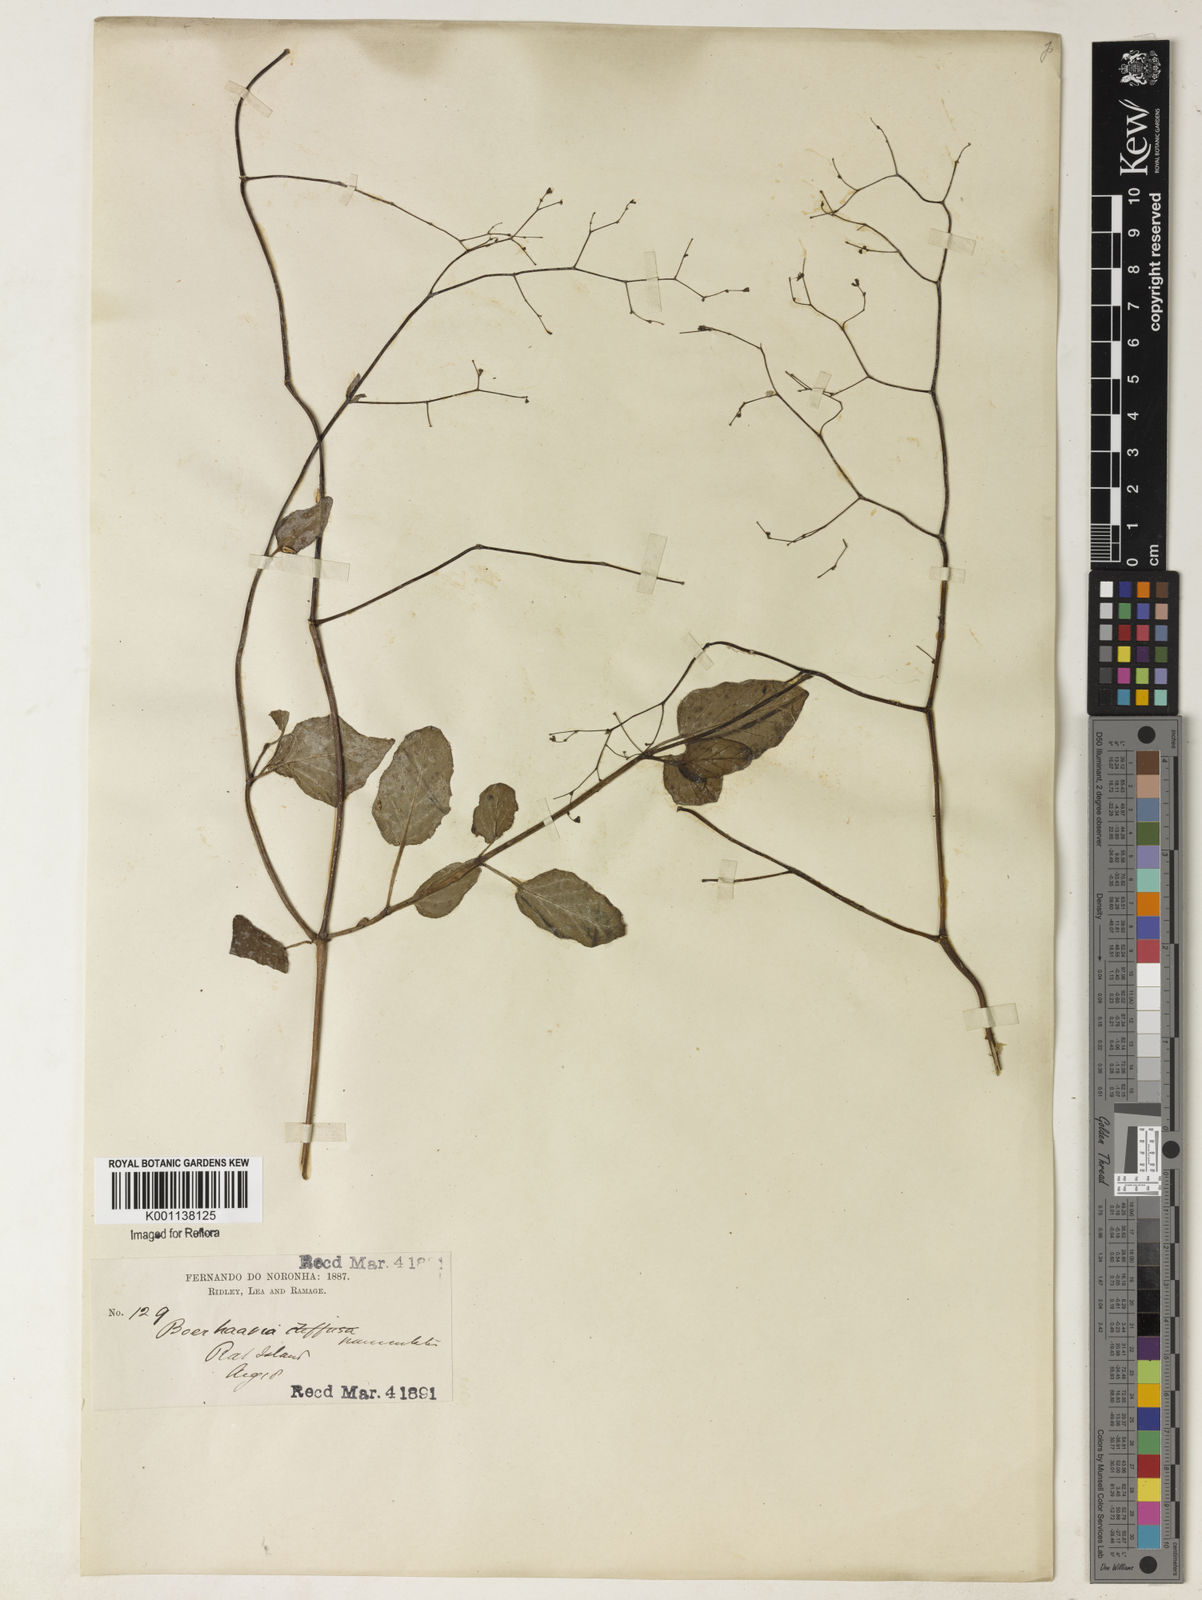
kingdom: Plantae
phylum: Tracheophyta
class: Magnoliopsida
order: Caryophyllales
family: Nyctaginaceae
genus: Boerhavia
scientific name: Boerhavia diffusa
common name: Red spiderling
